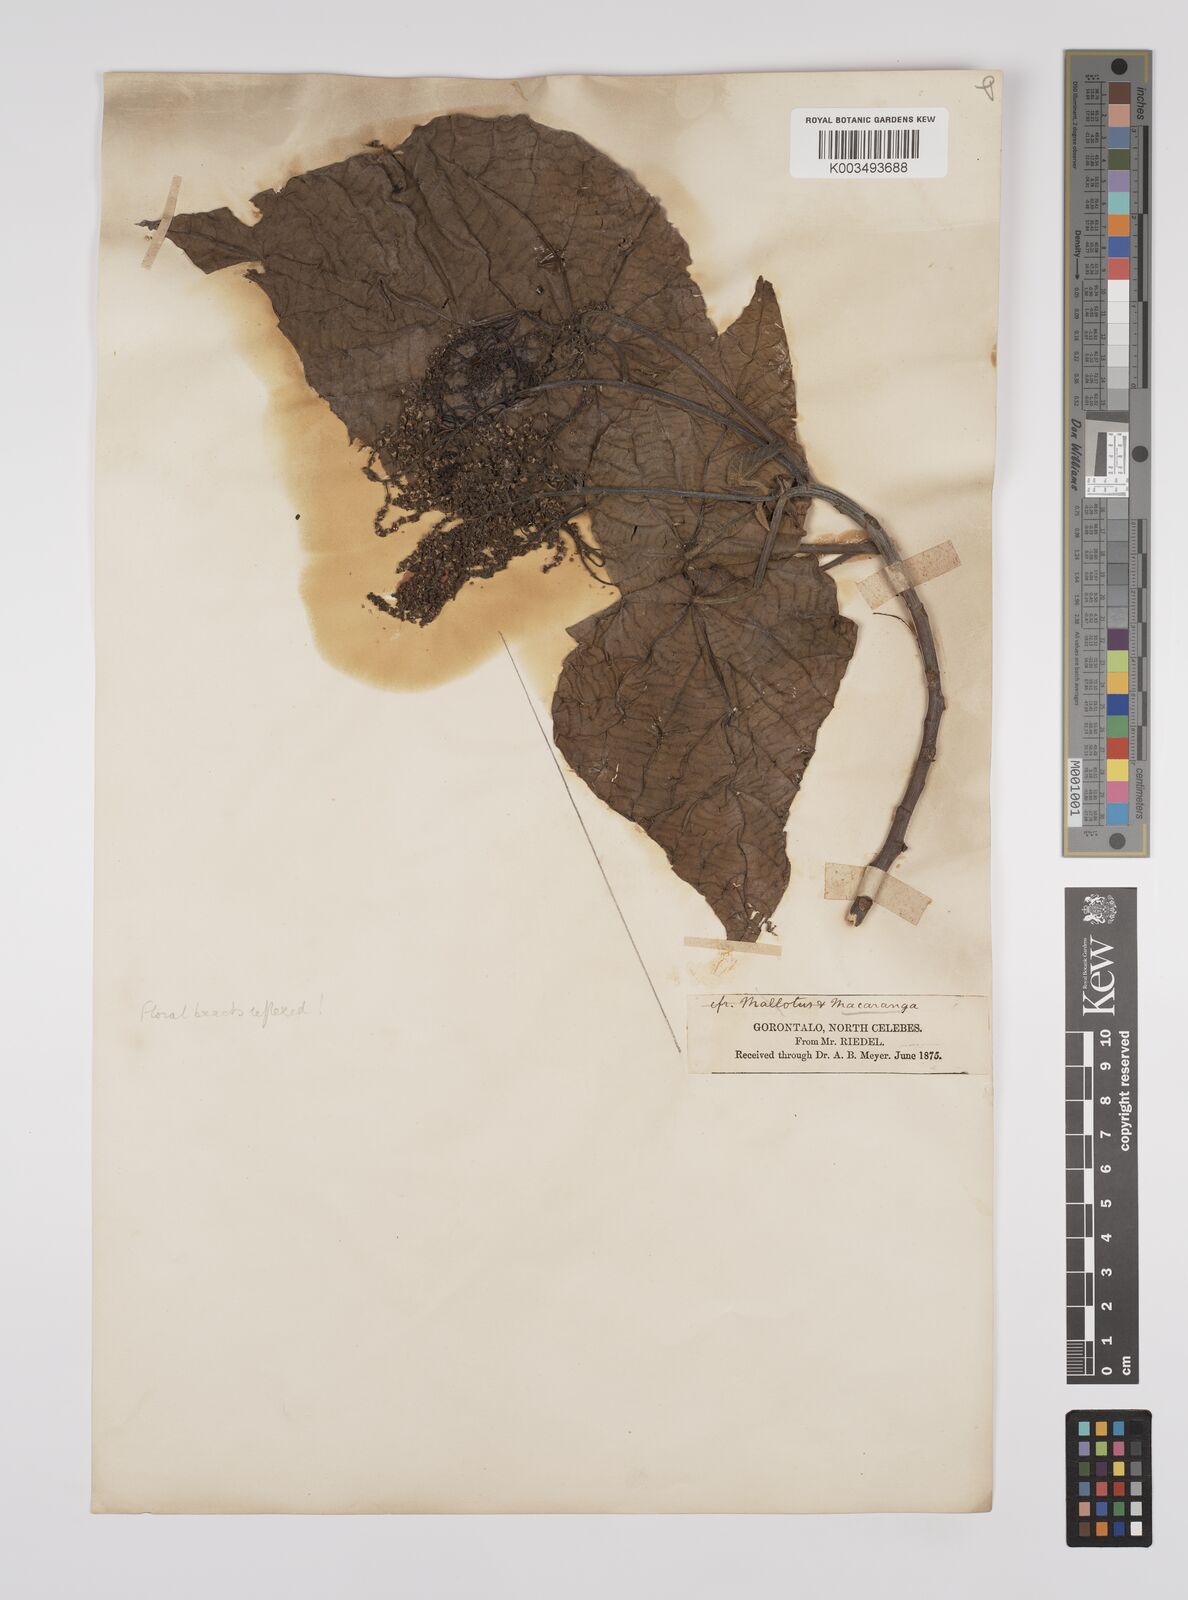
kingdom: Plantae
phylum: Tracheophyta
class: Magnoliopsida
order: Malpighiales
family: Euphorbiaceae
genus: Macaranga
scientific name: Macaranga tanarius
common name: Parasol leaf tree
